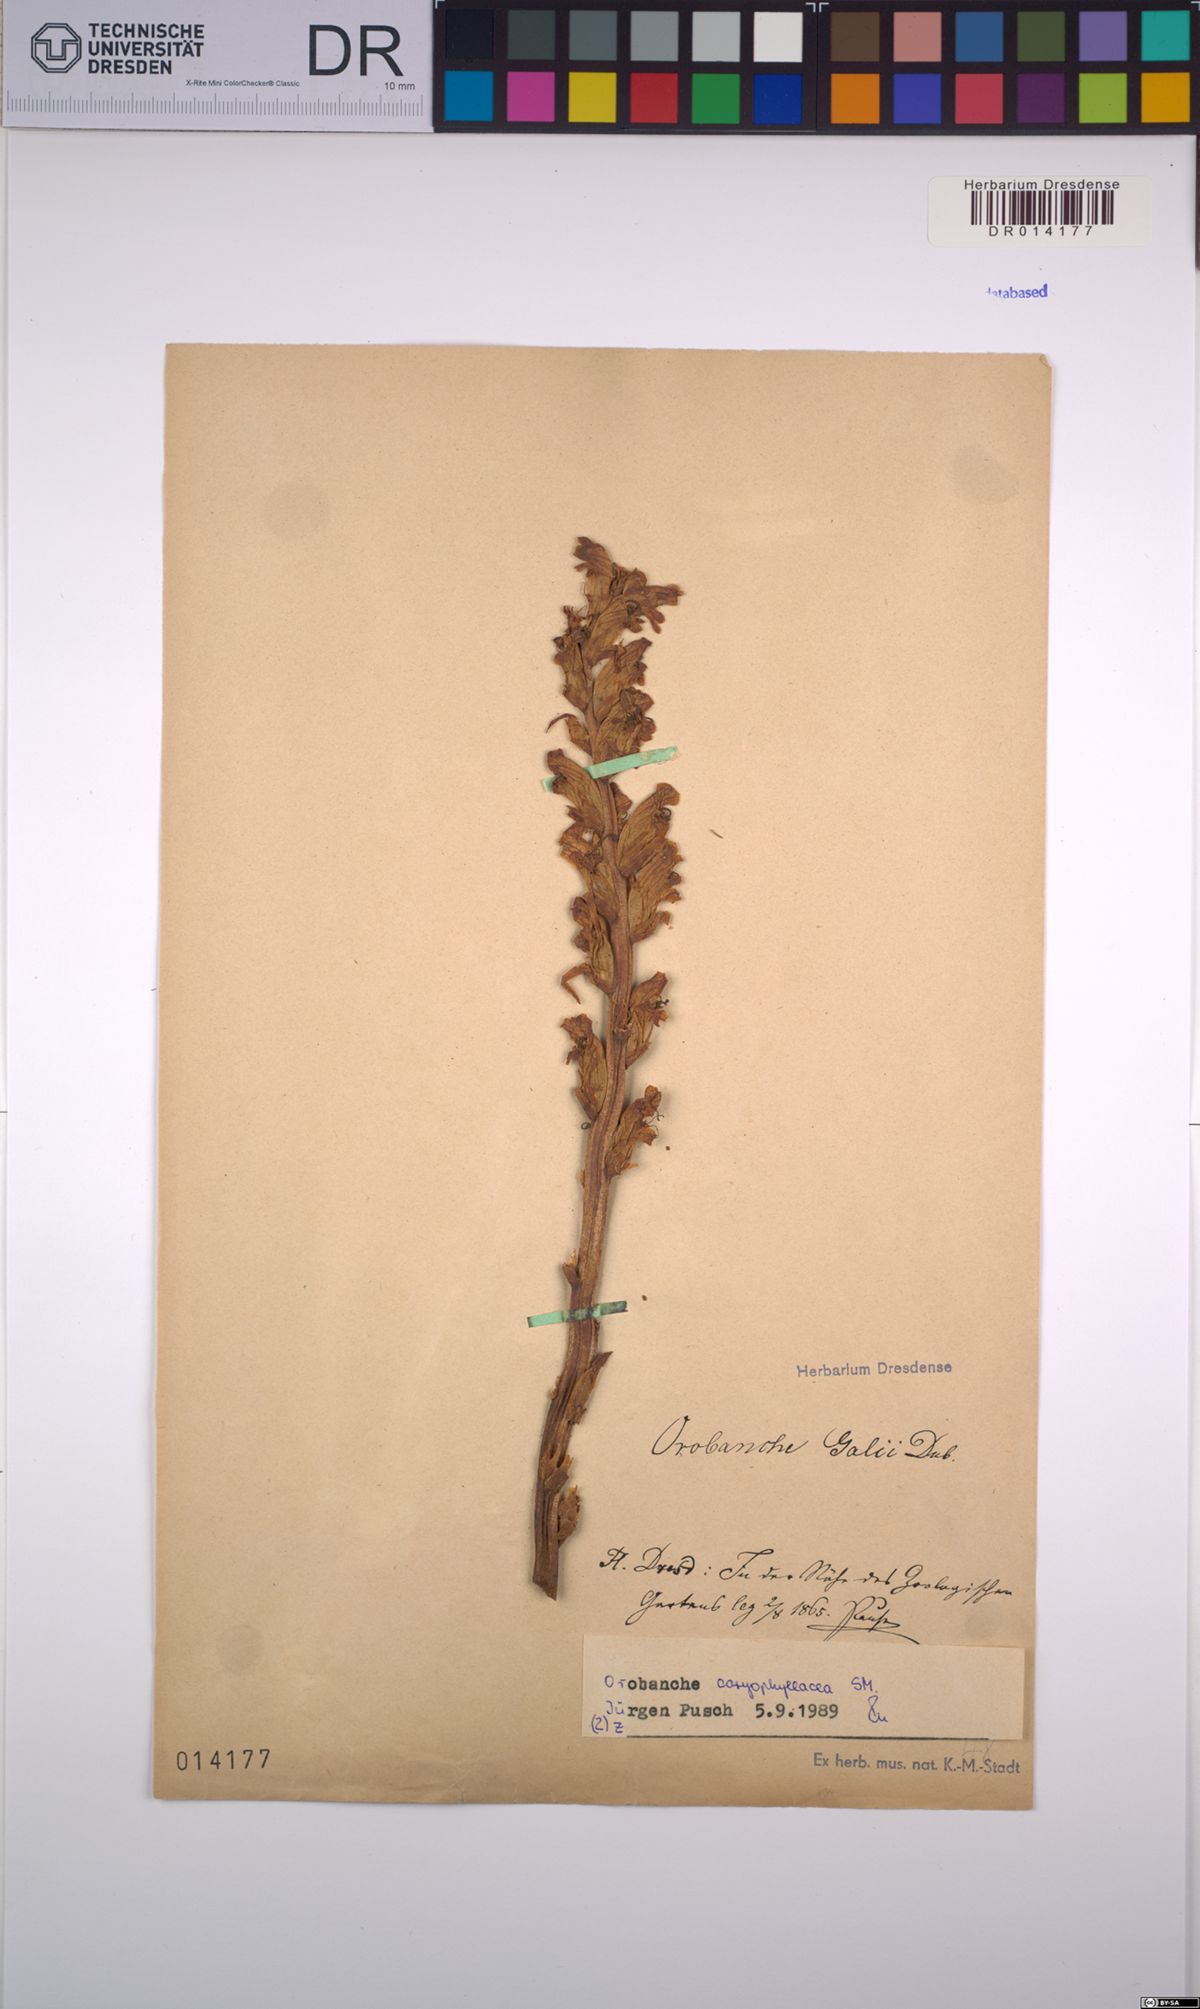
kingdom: Plantae
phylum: Tracheophyta
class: Magnoliopsida
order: Lamiales
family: Orobanchaceae
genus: Orobanche
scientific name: Orobanche caryophyllacea
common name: Bedstraw broomrape
